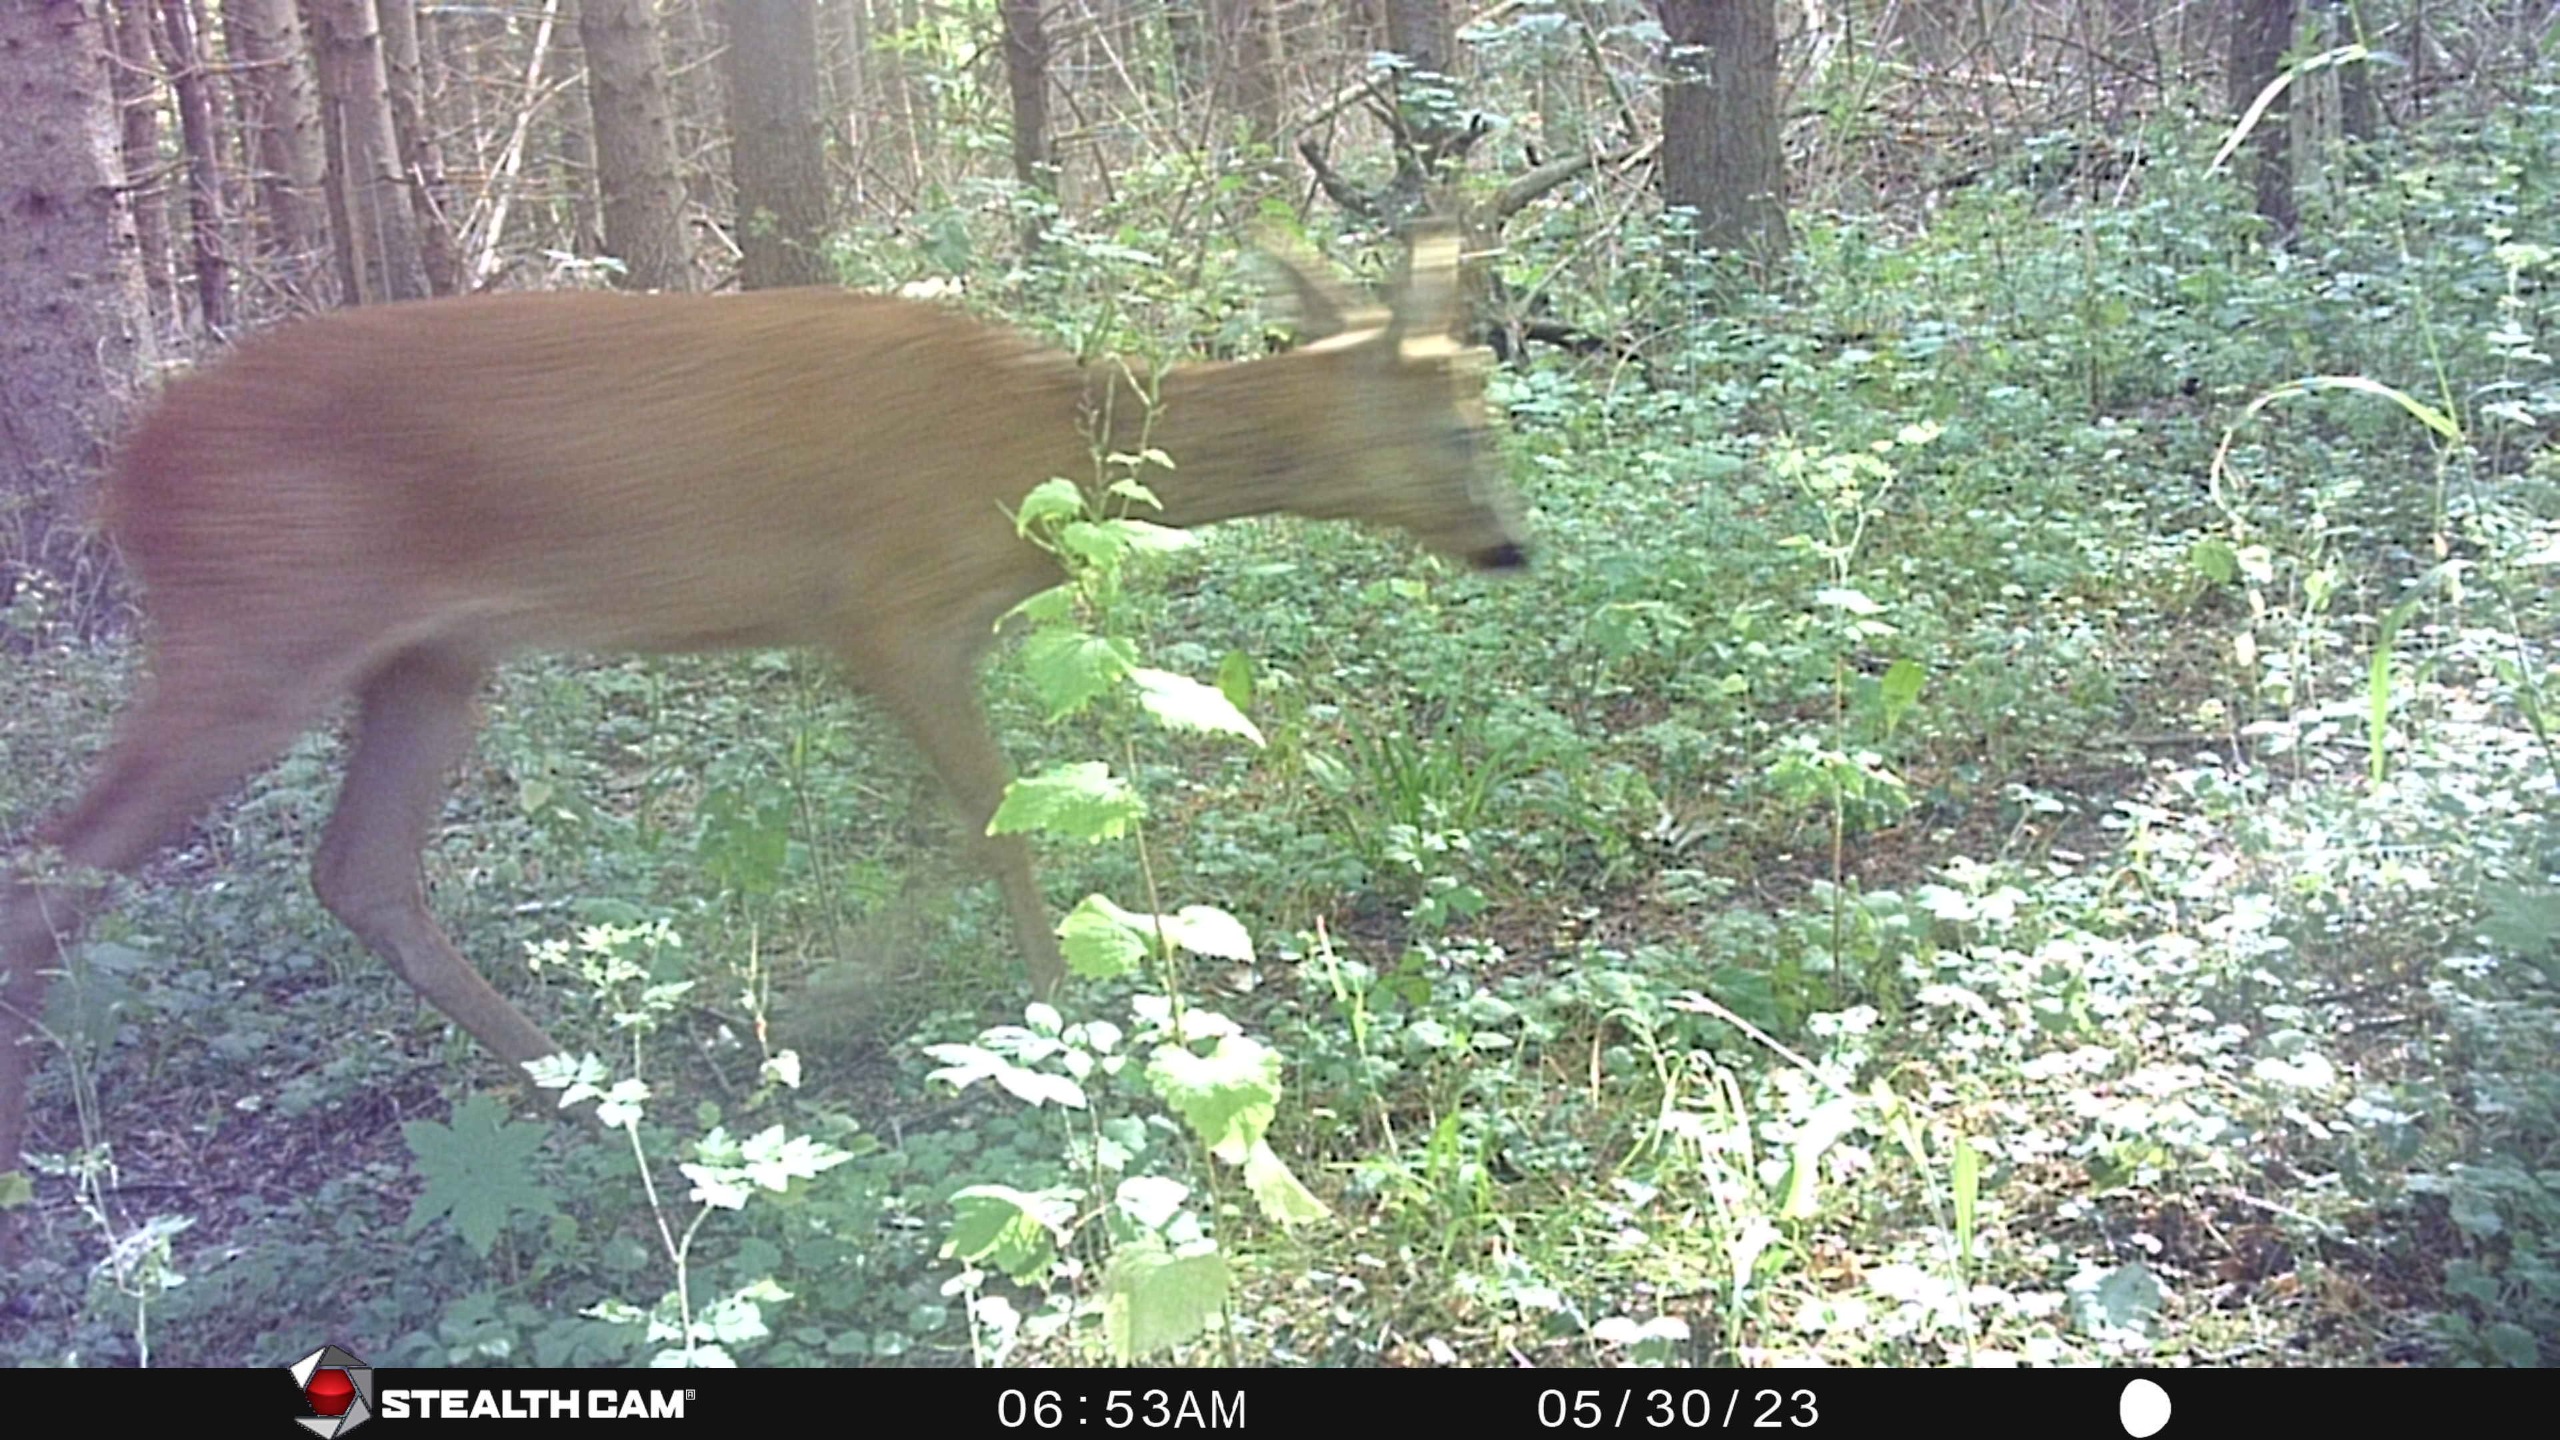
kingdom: Animalia
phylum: Chordata
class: Mammalia
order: Artiodactyla
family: Cervidae
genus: Capreolus
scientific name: Capreolus capreolus
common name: Rådyr
